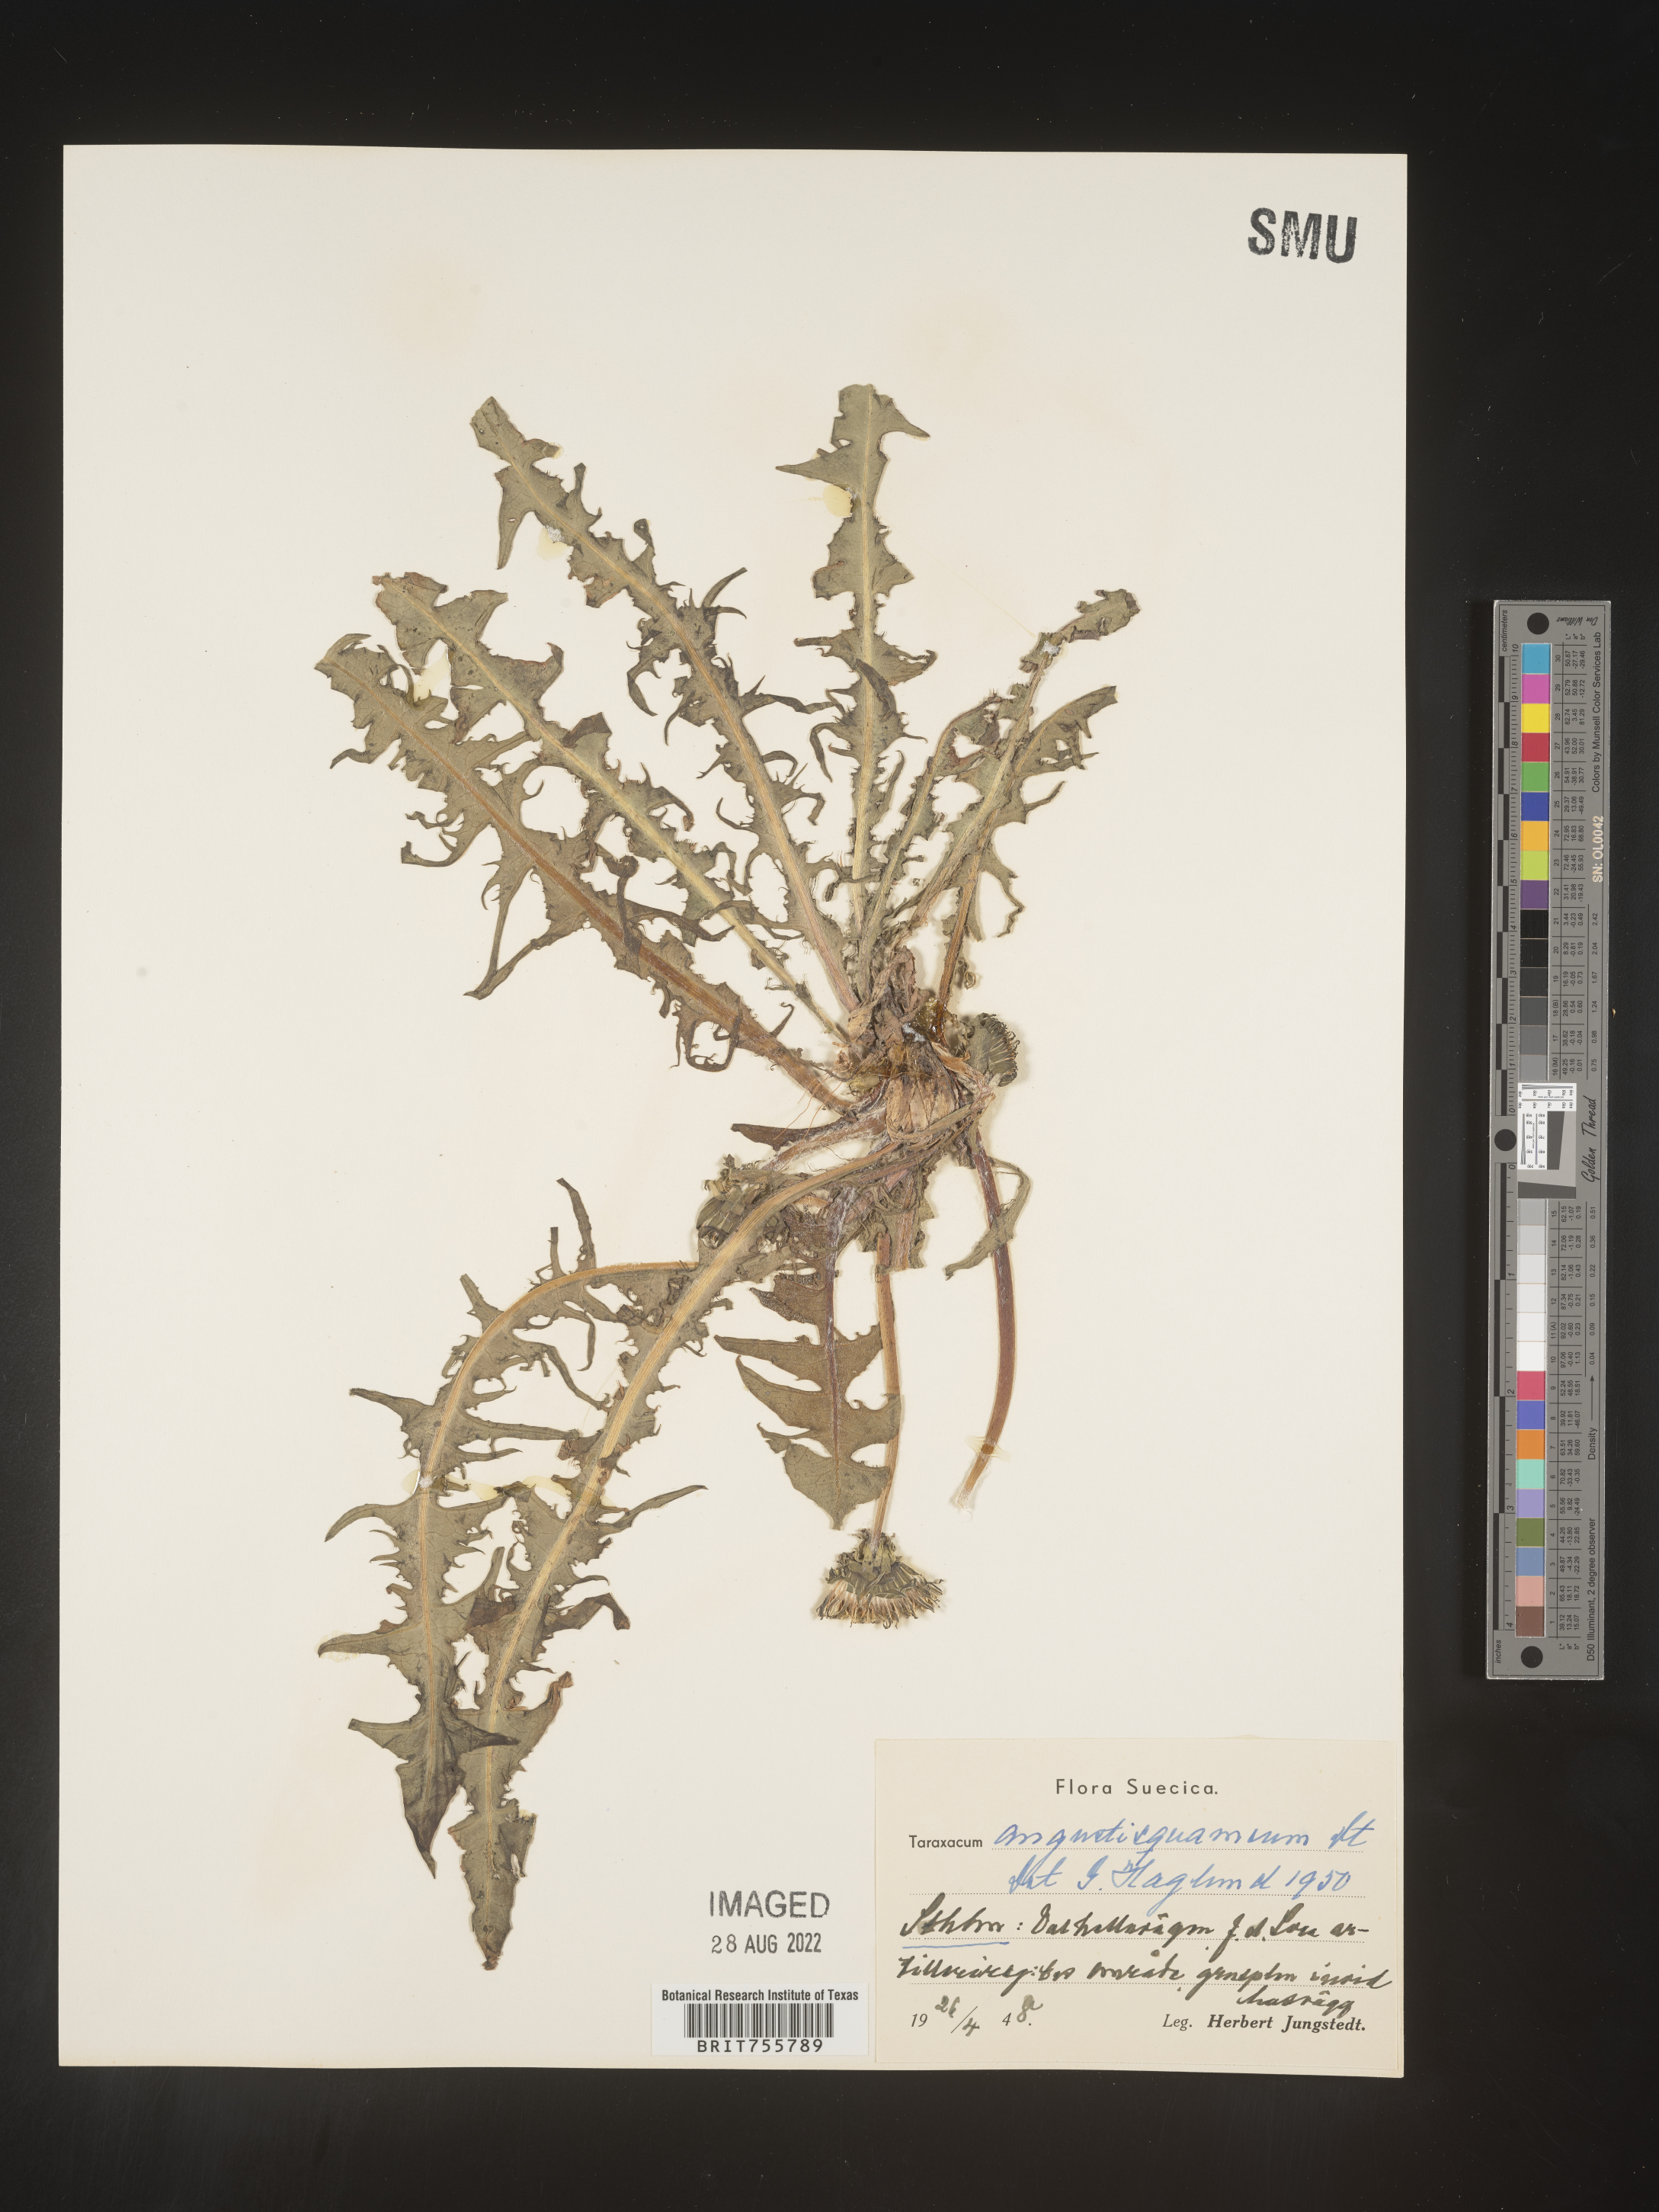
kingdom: Plantae
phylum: Tracheophyta
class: Magnoliopsida
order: Asterales
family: Asteraceae
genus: Taraxacum
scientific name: Taraxacum
